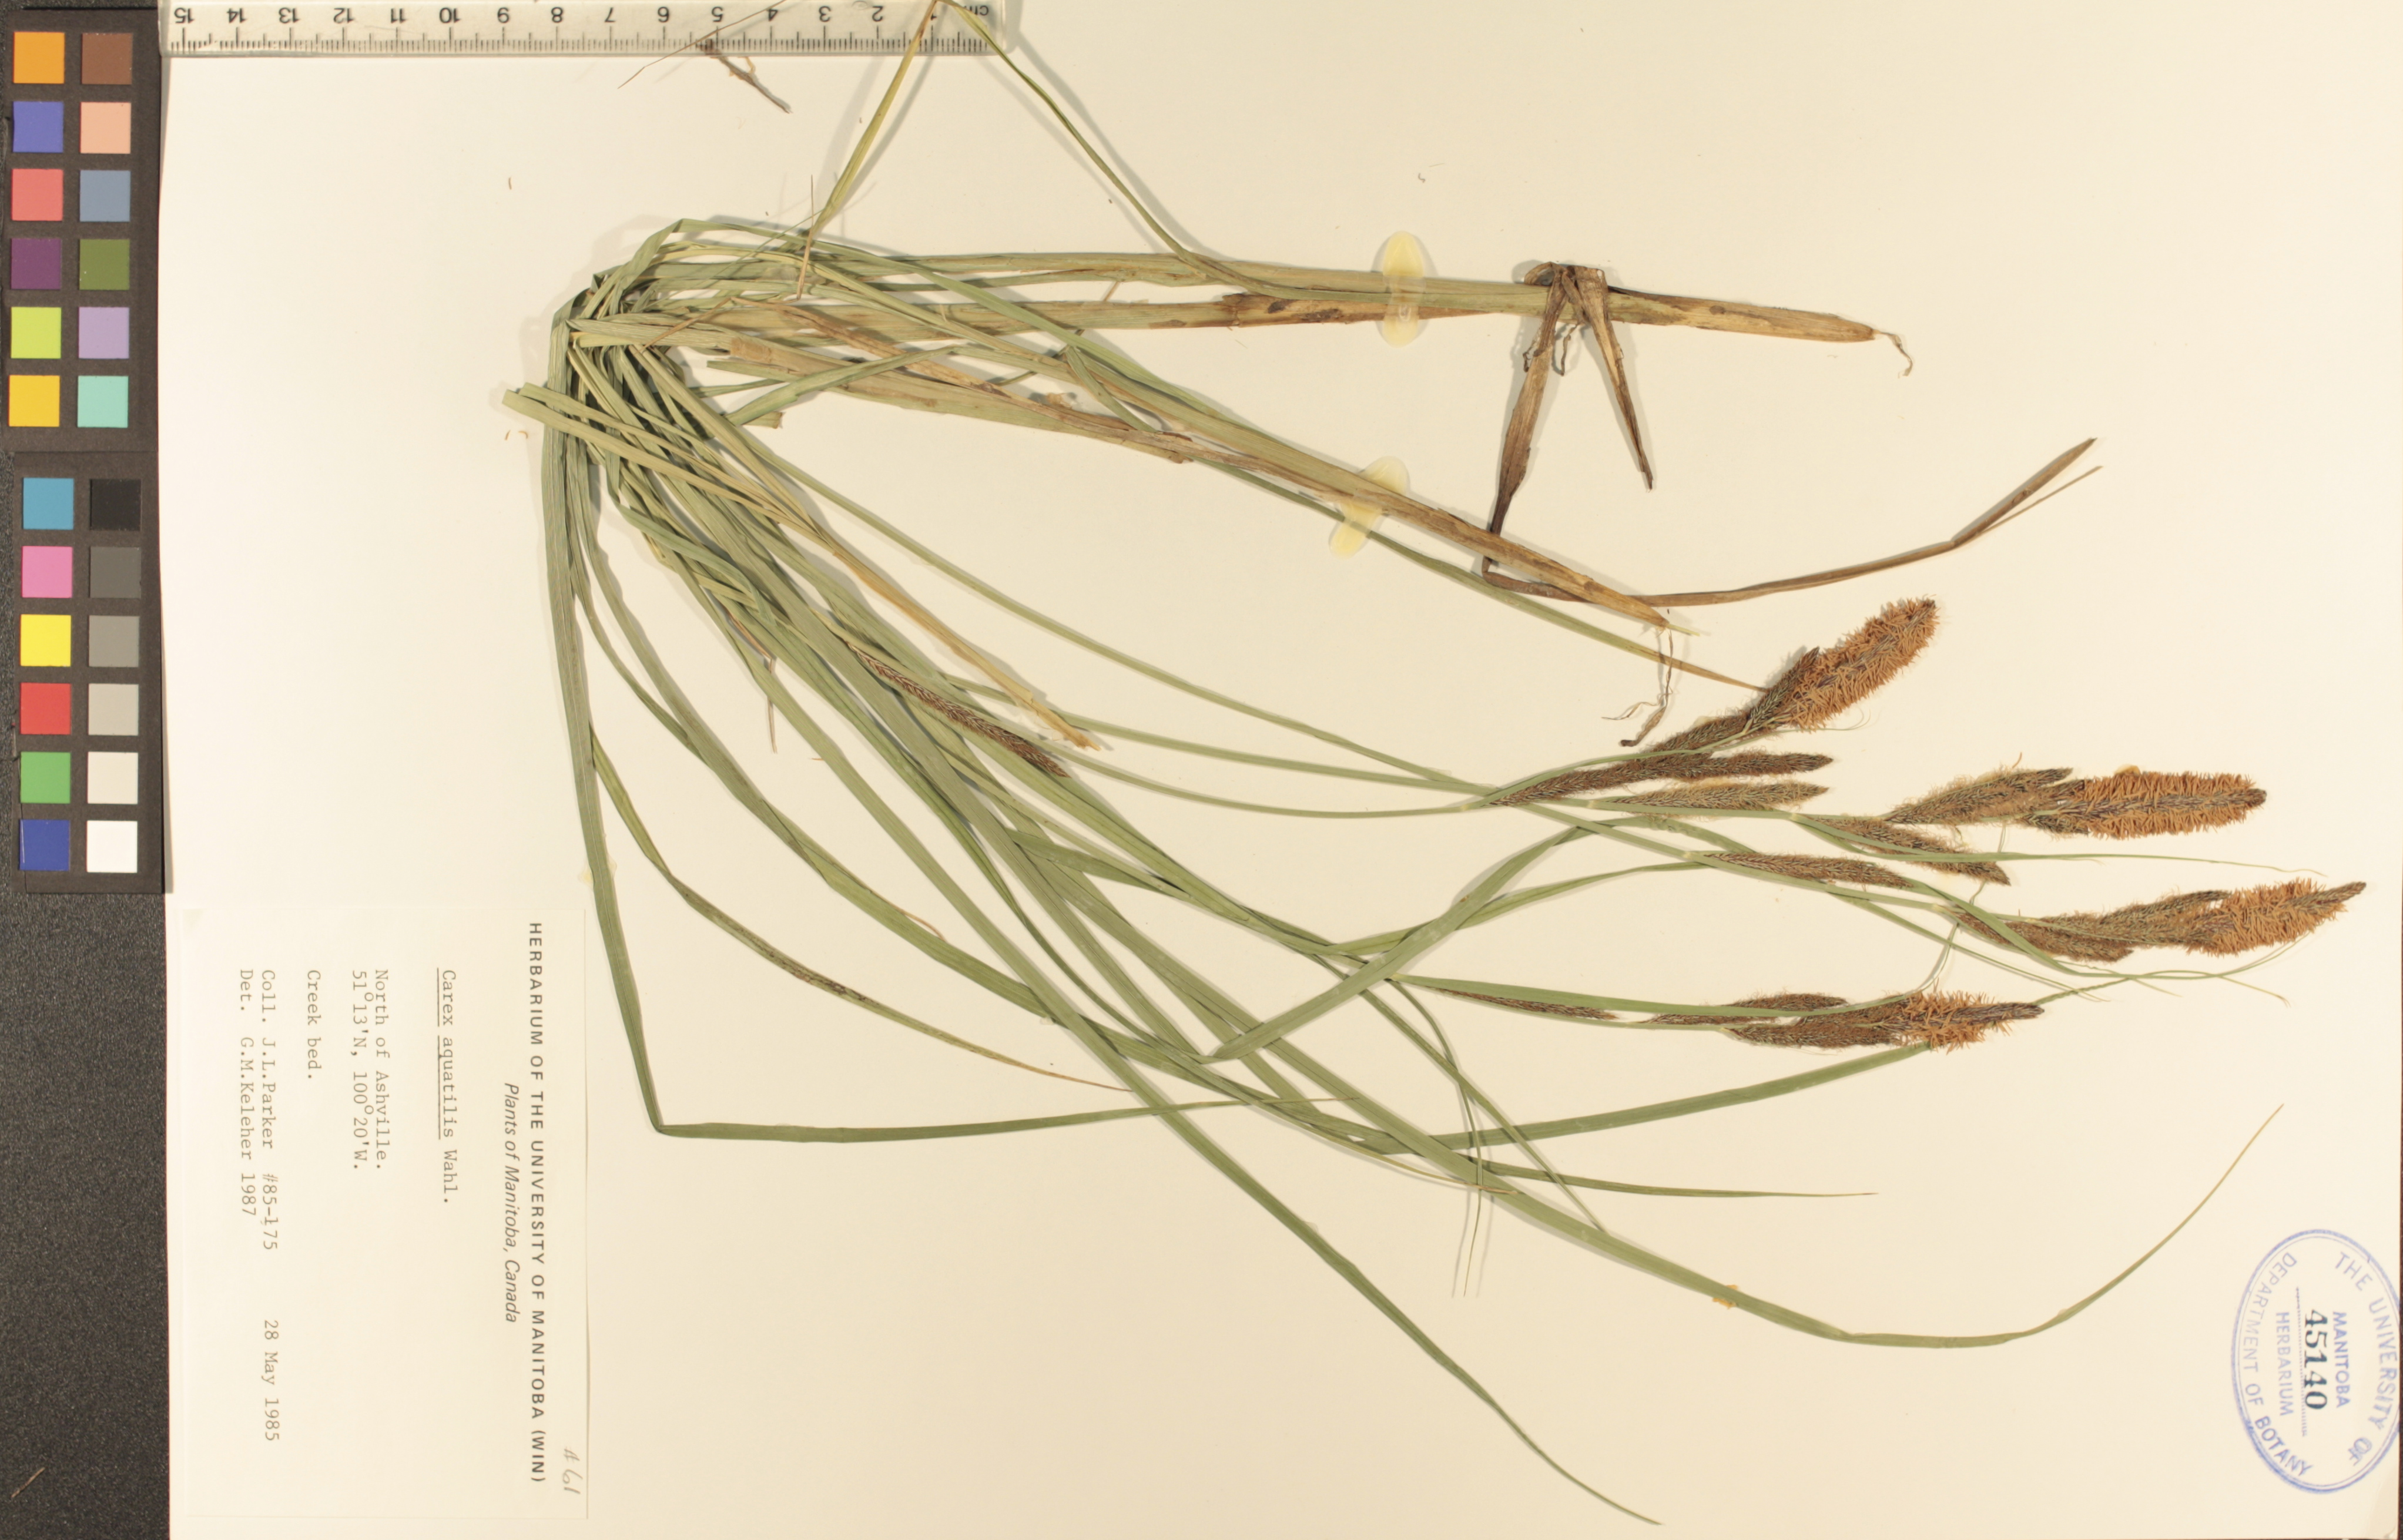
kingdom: Plantae
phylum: Tracheophyta
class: Liliopsida
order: Poales
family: Cyperaceae
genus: Carex
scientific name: Carex aquatilis
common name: Water sedge
